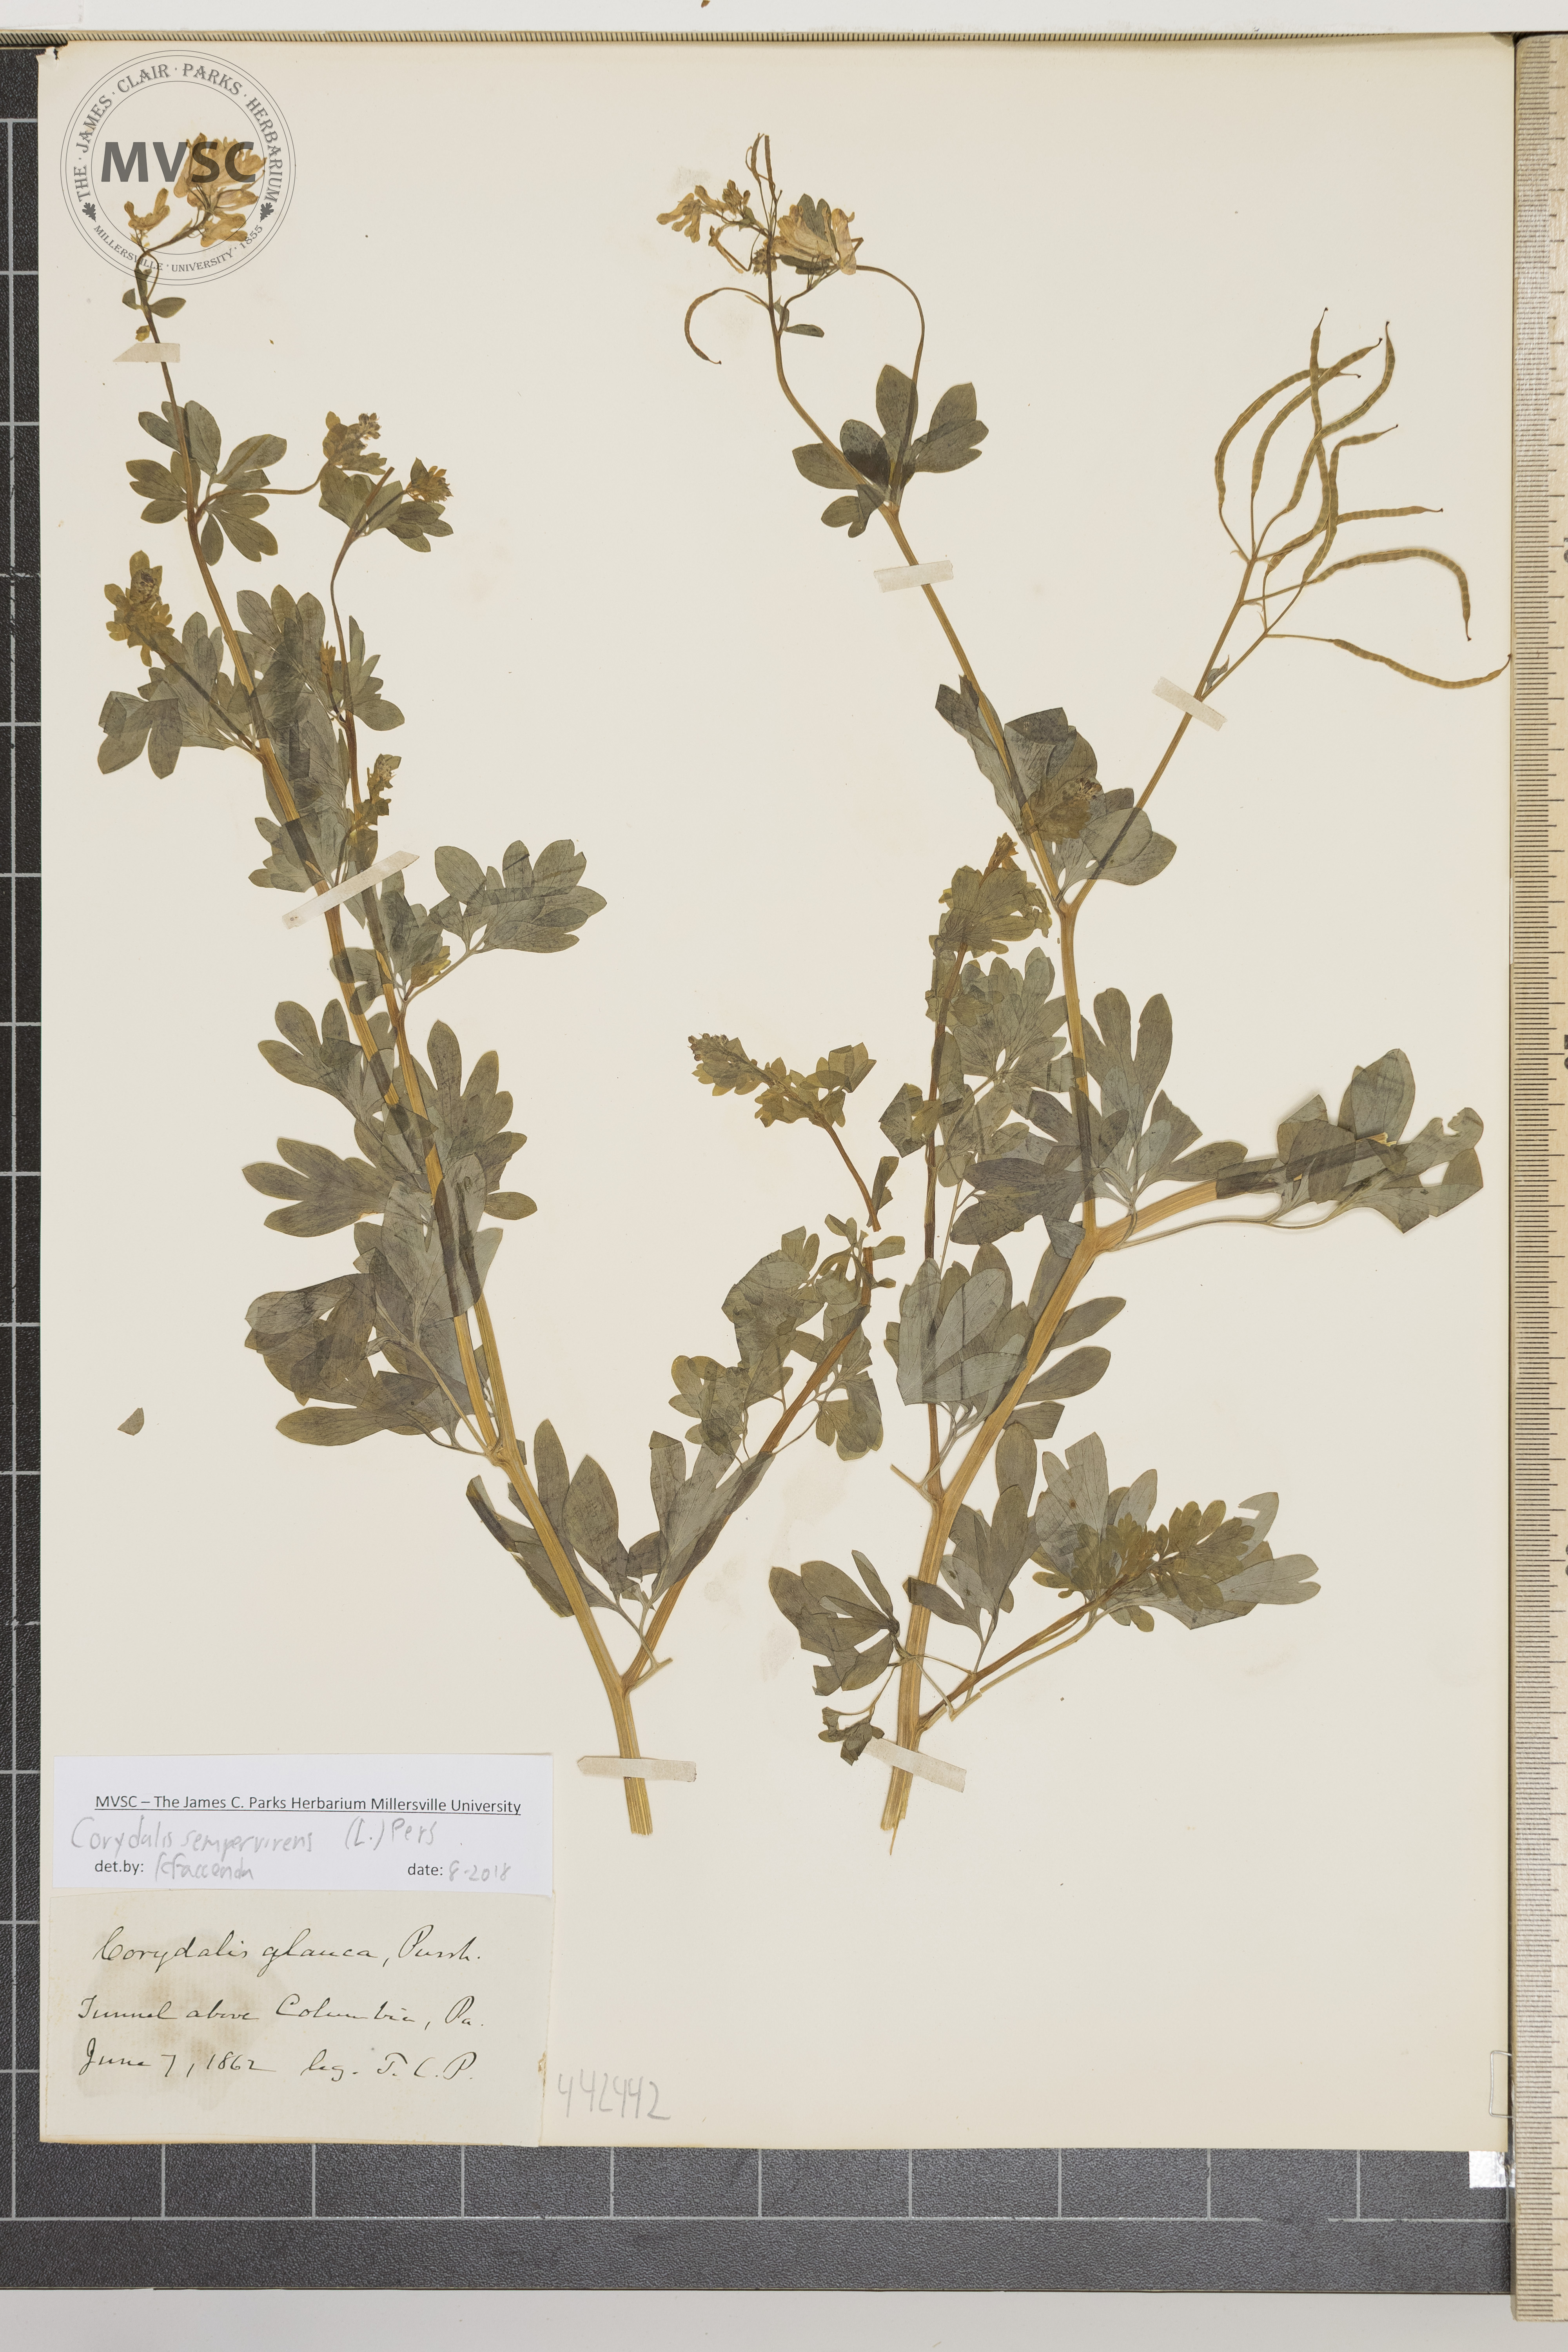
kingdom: Plantae
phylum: Tracheophyta
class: Magnoliopsida
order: Ranunculales
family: Papaveraceae
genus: Capnoides
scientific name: Capnoides sempervirens
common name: Rock harlequin
